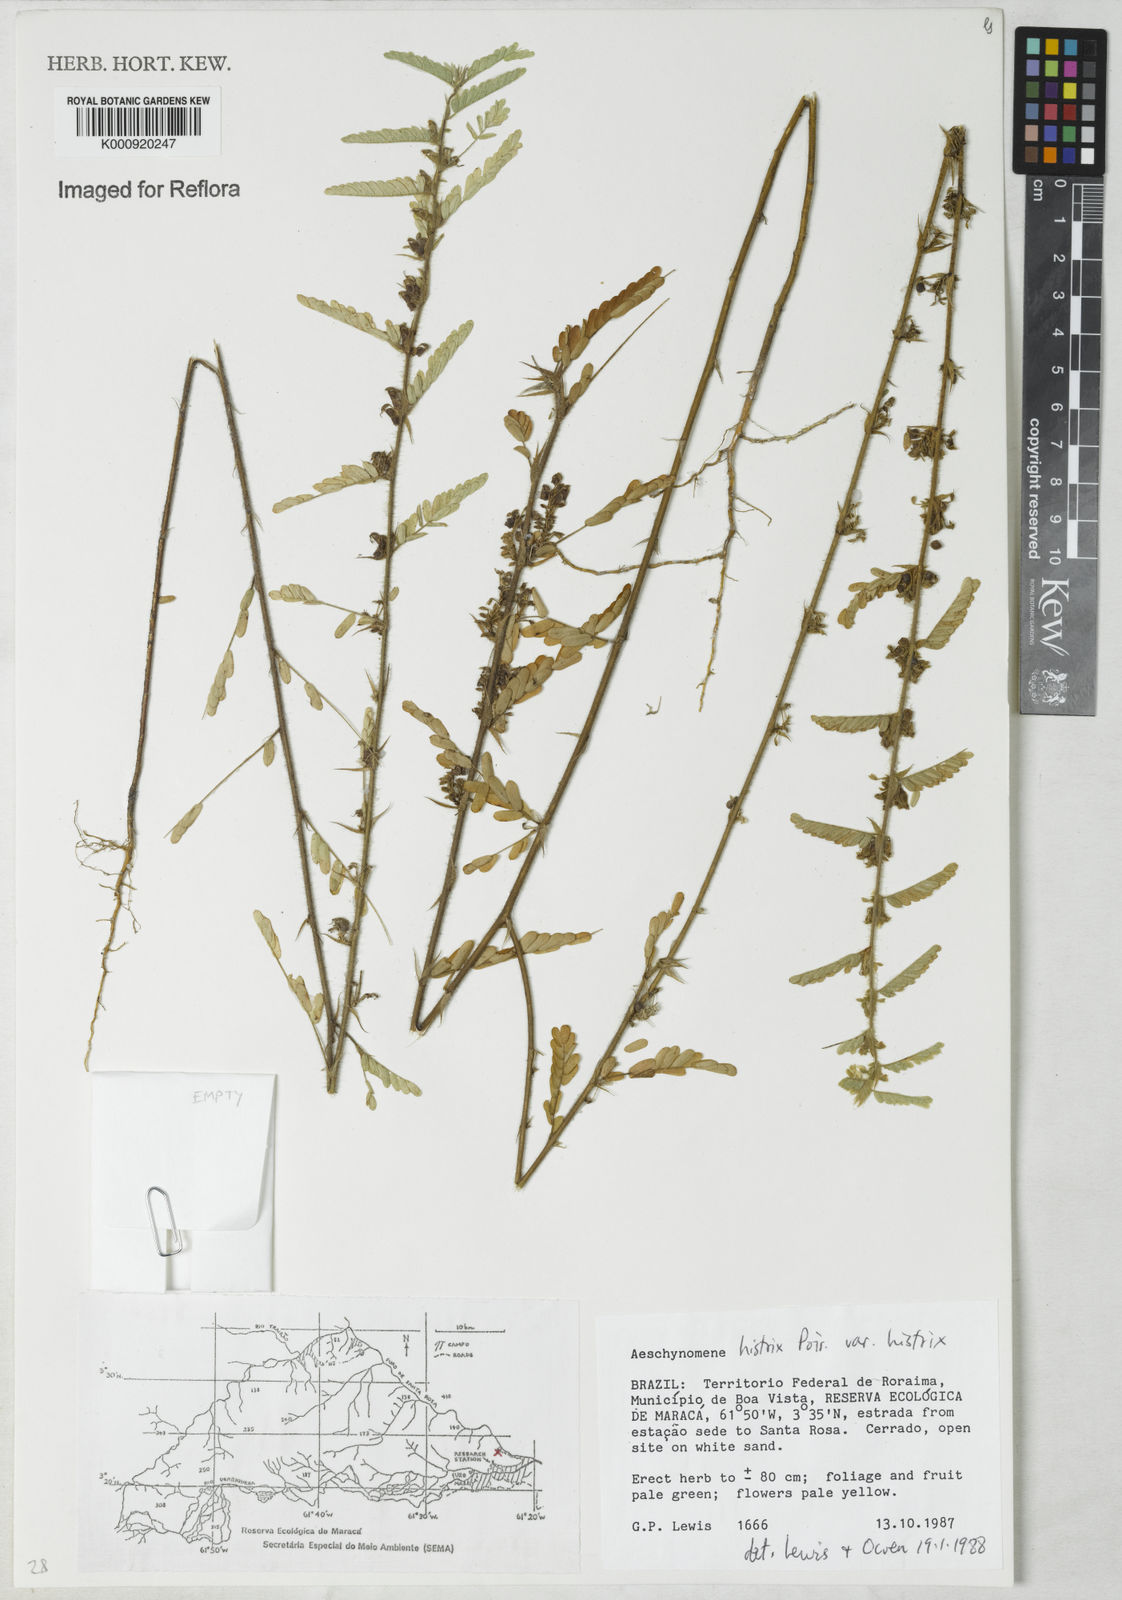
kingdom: Plantae
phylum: Tracheophyta
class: Magnoliopsida
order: Fabales
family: Fabaceae
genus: Ctenodon
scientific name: Ctenodon histrix
